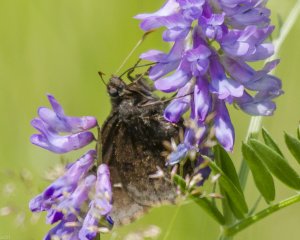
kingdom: Animalia
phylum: Arthropoda
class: Insecta
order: Lepidoptera
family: Hesperiidae
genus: Autochton
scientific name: Autochton
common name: Northern Cloudywing
